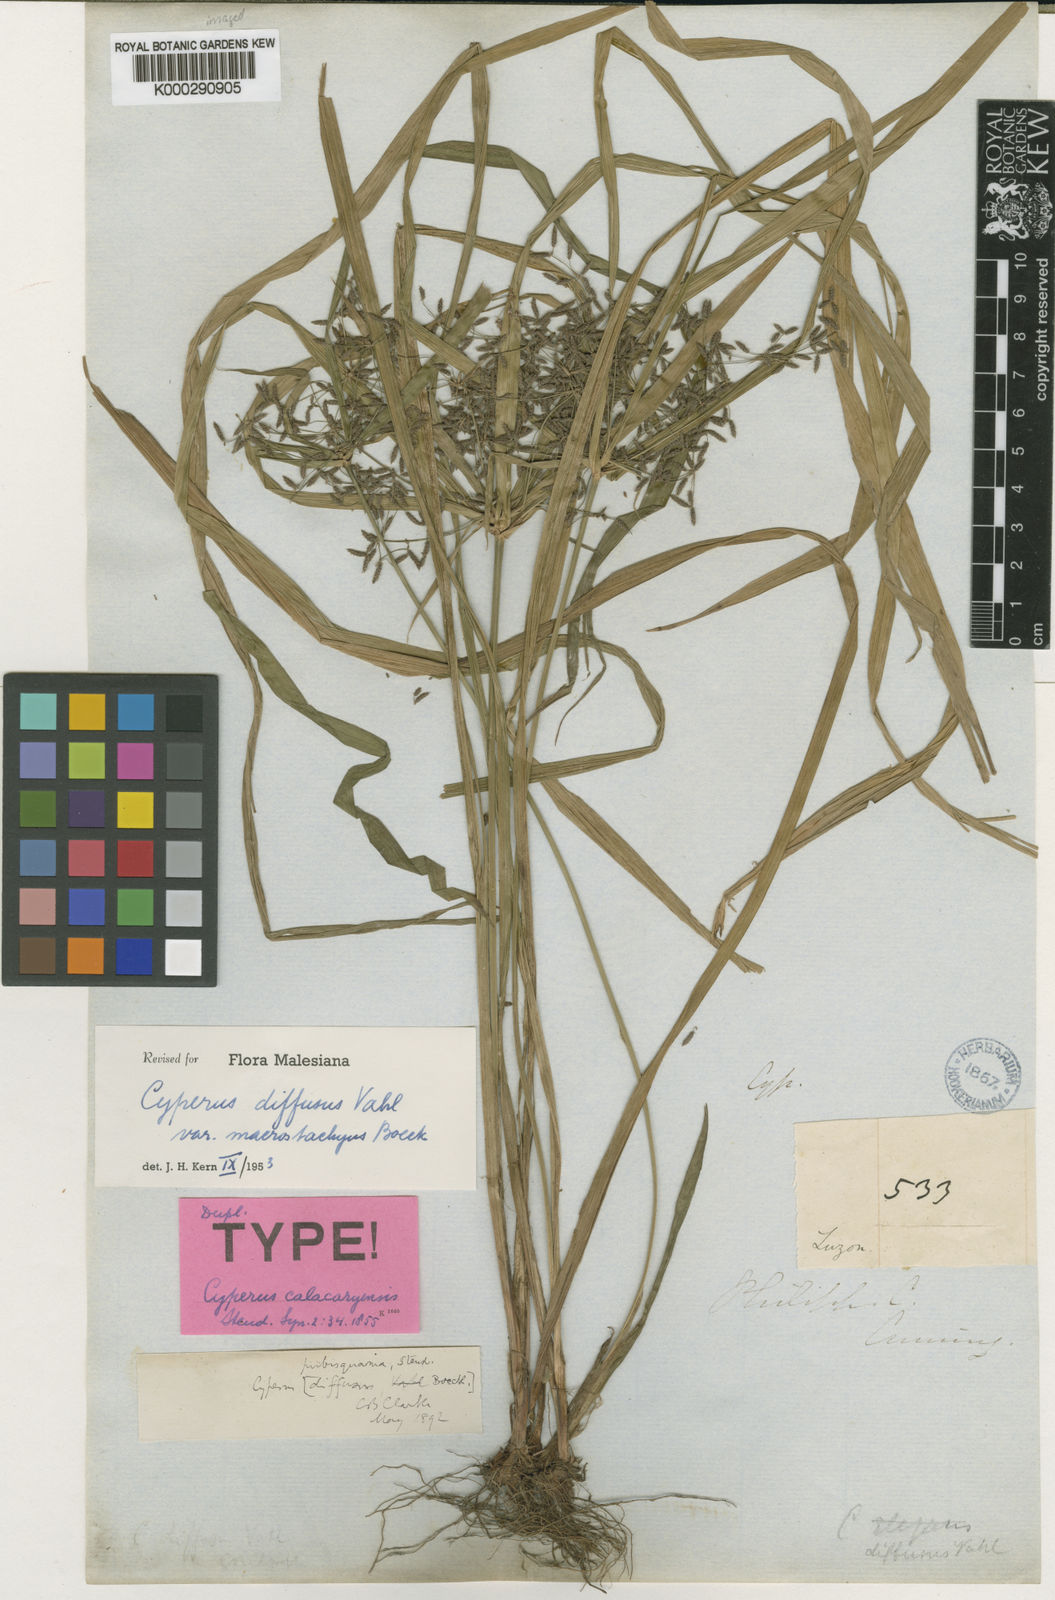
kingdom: Plantae
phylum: Tracheophyta
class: Liliopsida
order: Poales
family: Cyperaceae
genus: Cyperus
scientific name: Cyperus
